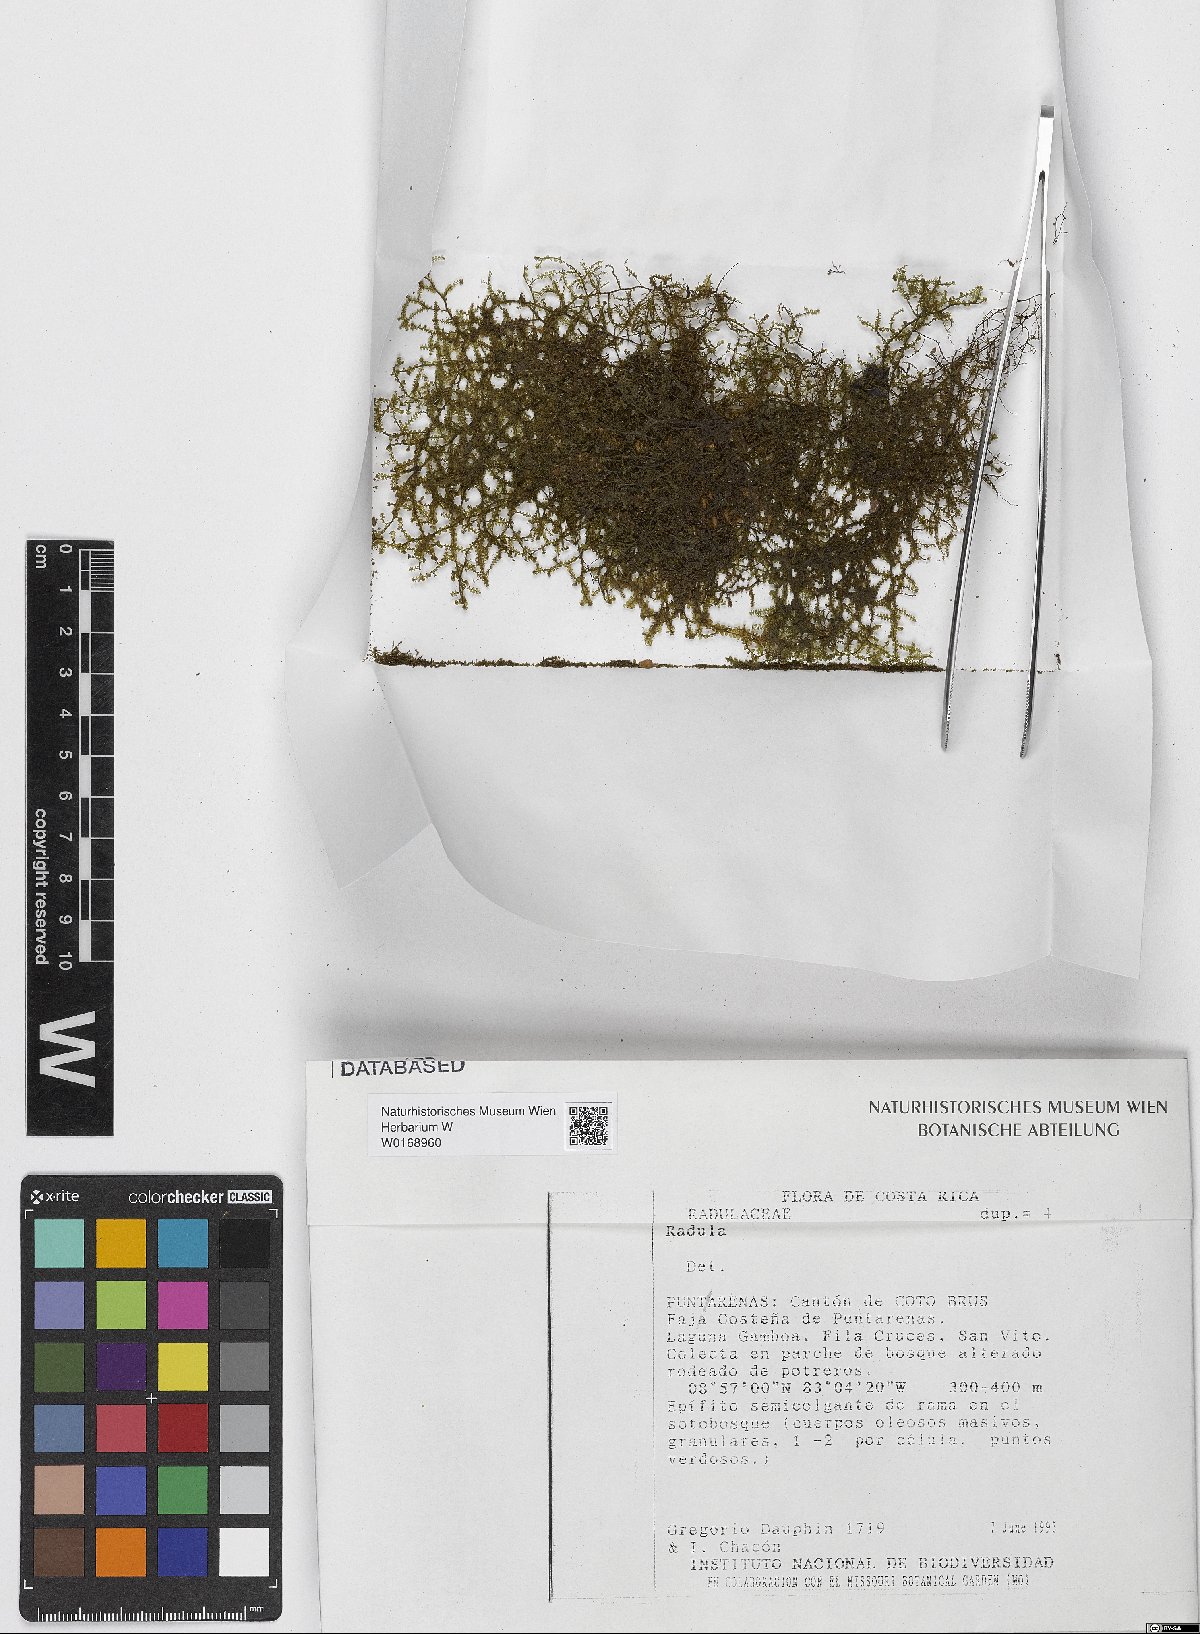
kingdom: Plantae
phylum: Marchantiophyta
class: Jungermanniopsida
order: Porellales
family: Radulaceae
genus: Radula
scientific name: Radula
